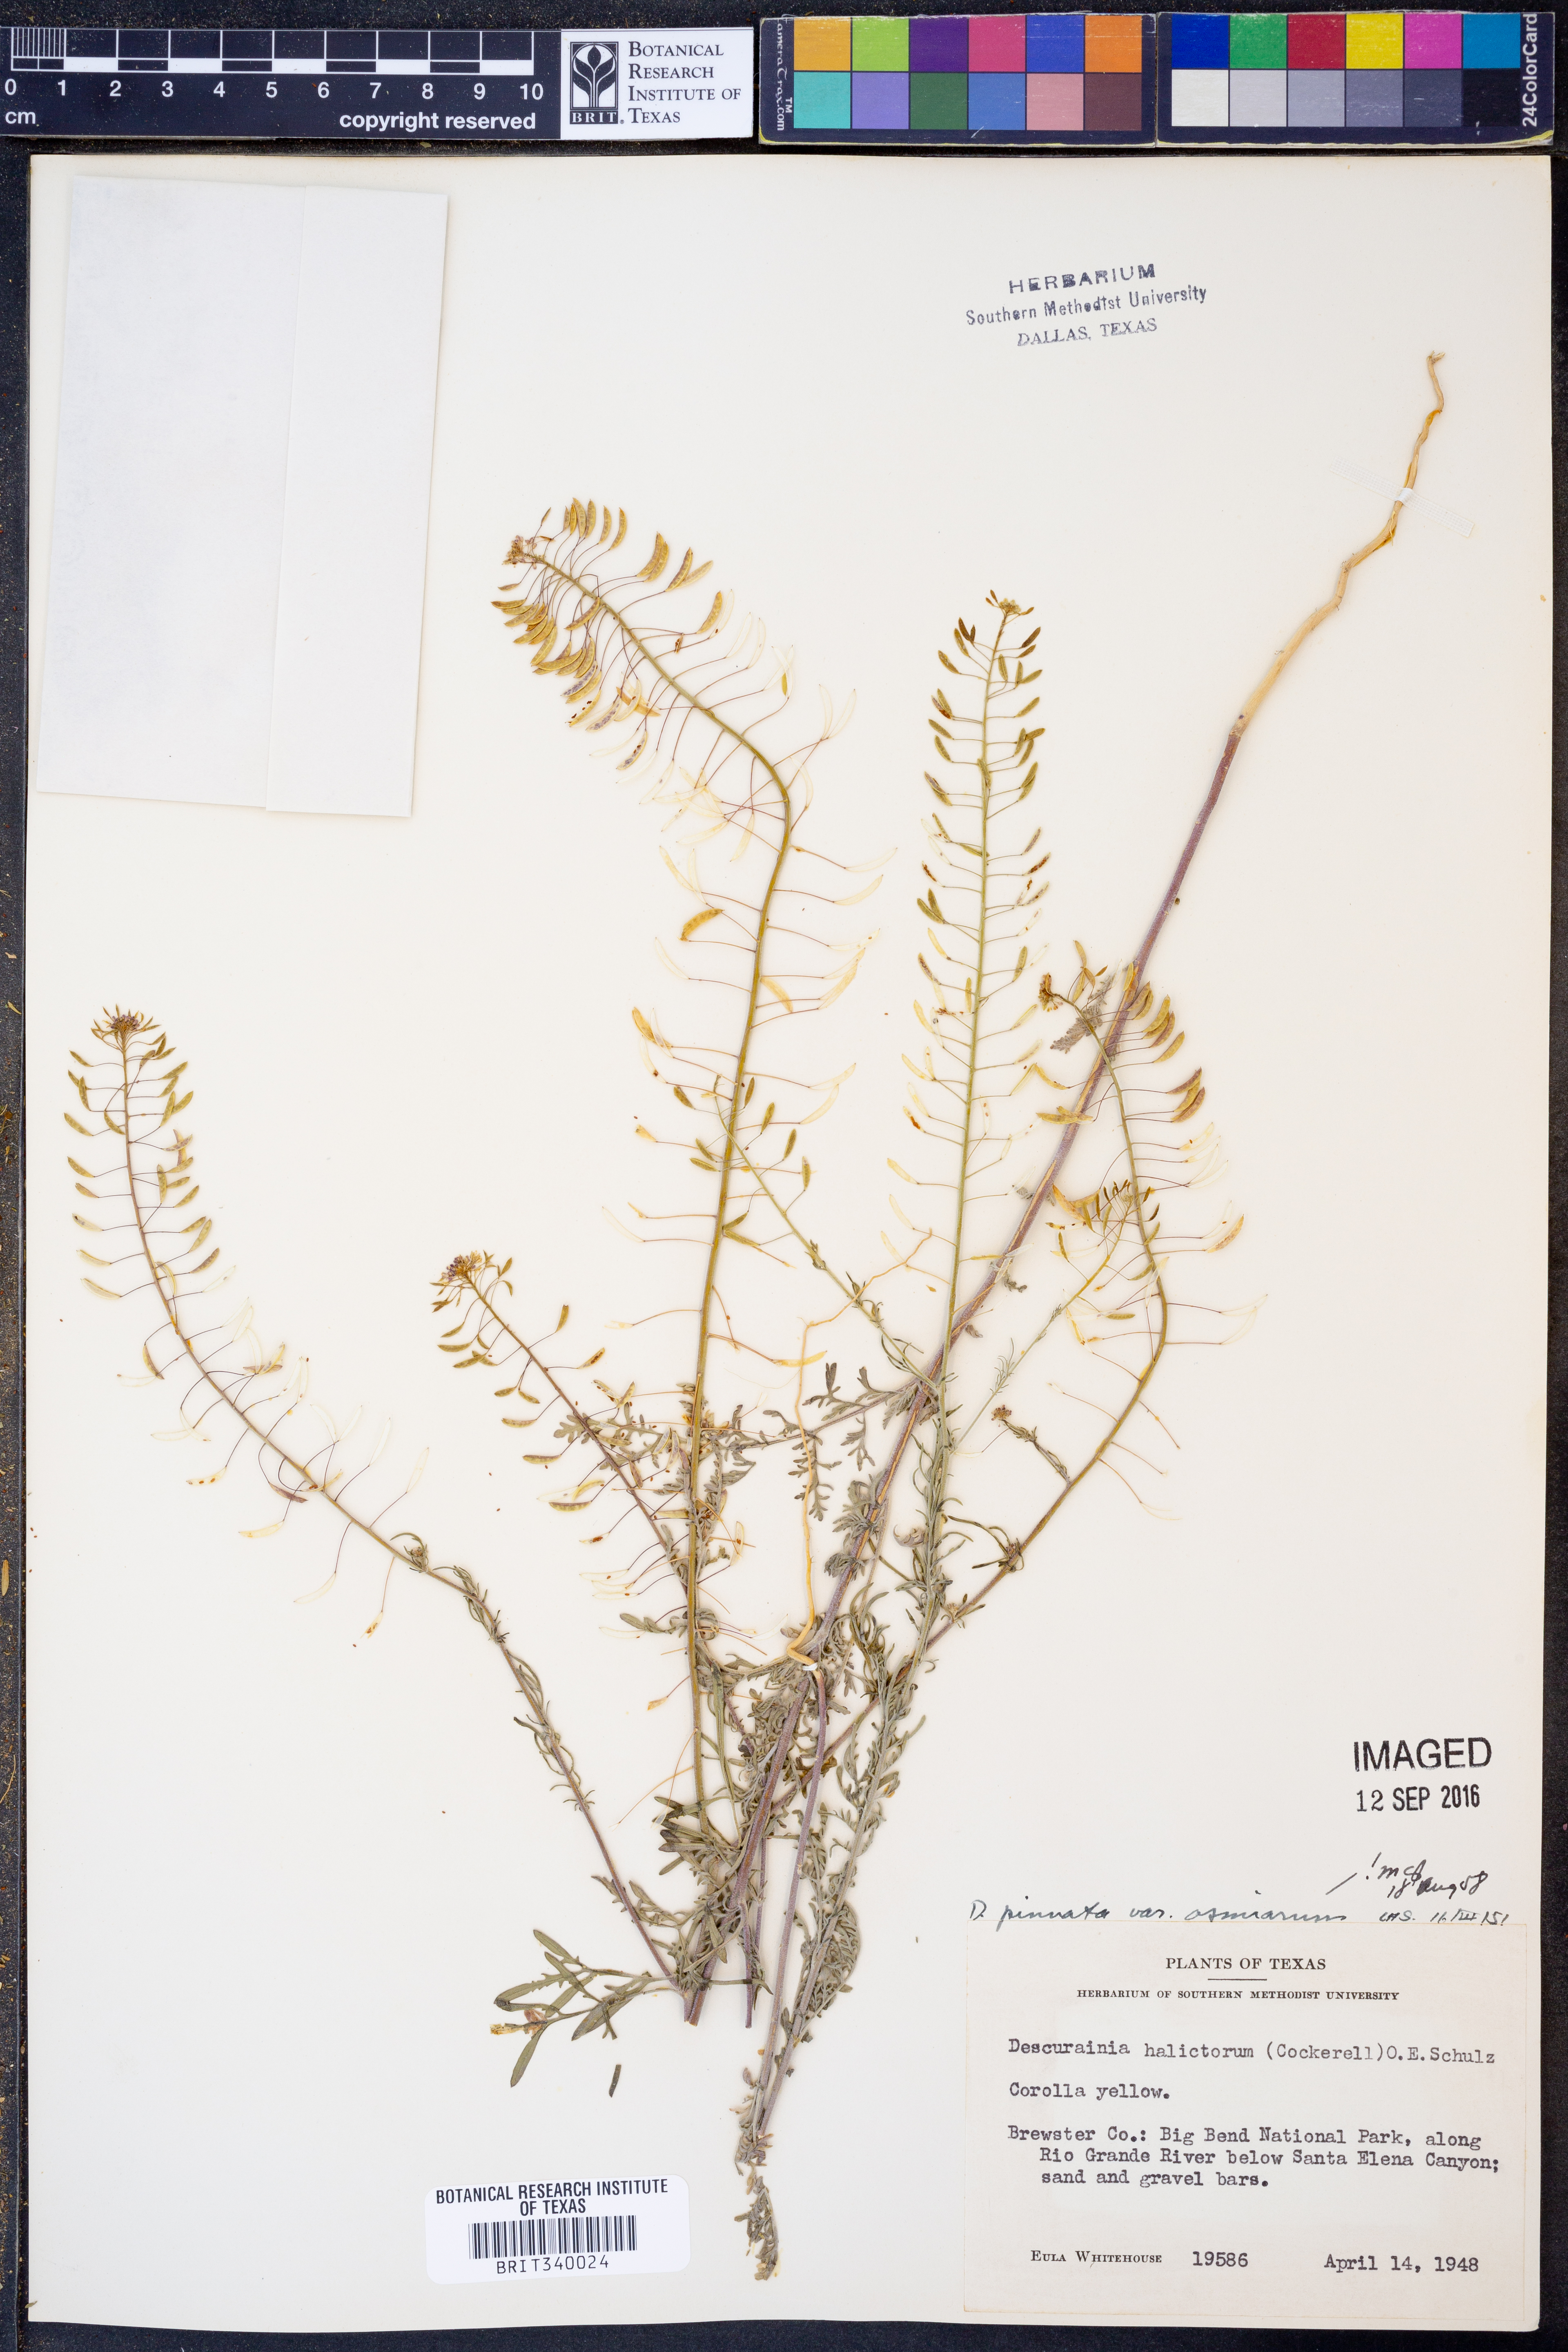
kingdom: Plantae
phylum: Tracheophyta
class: Magnoliopsida
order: Brassicales
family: Brassicaceae
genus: Descurainia
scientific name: Descurainia pinnata
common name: Western tansy mustard
